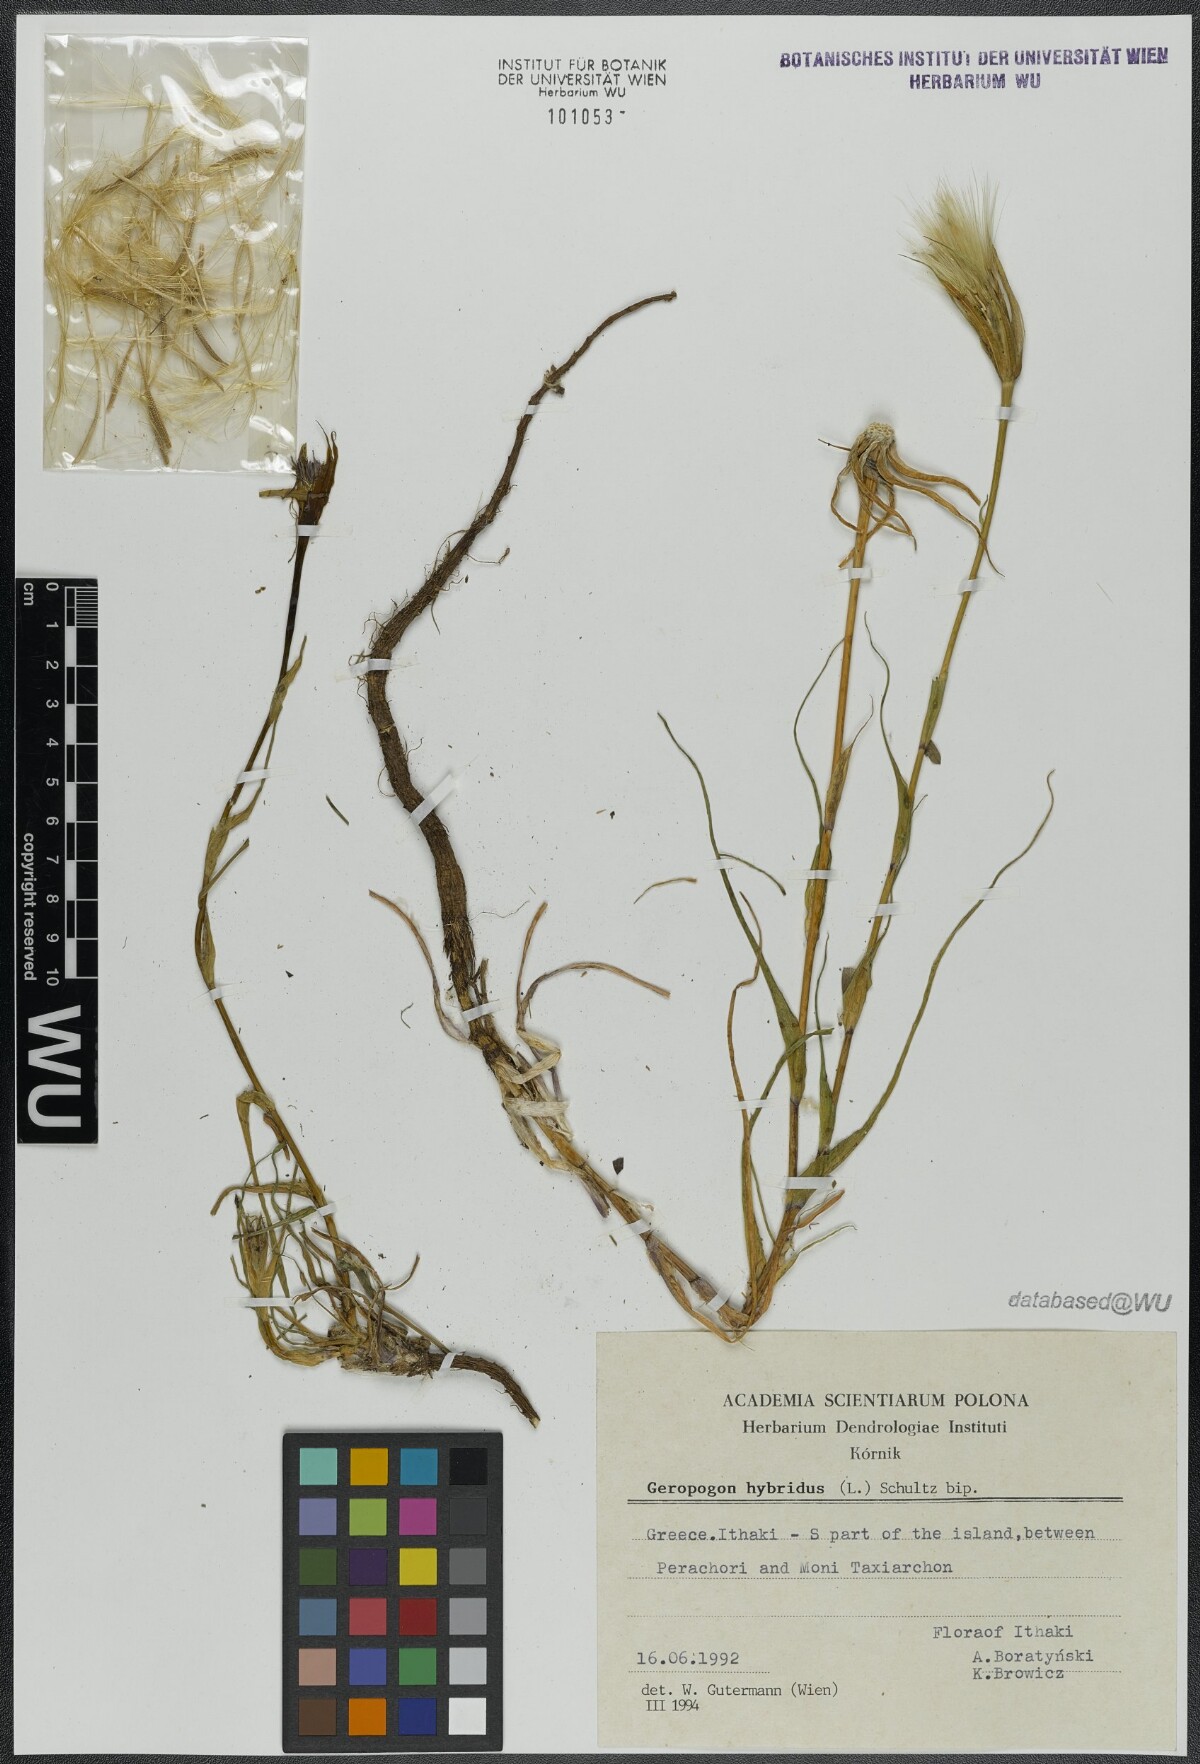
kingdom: Plantae
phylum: Tracheophyta
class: Magnoliopsida
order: Asterales
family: Asteraceae
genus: Tragopogon
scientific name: Tragopogon porrifolius
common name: Salsify
